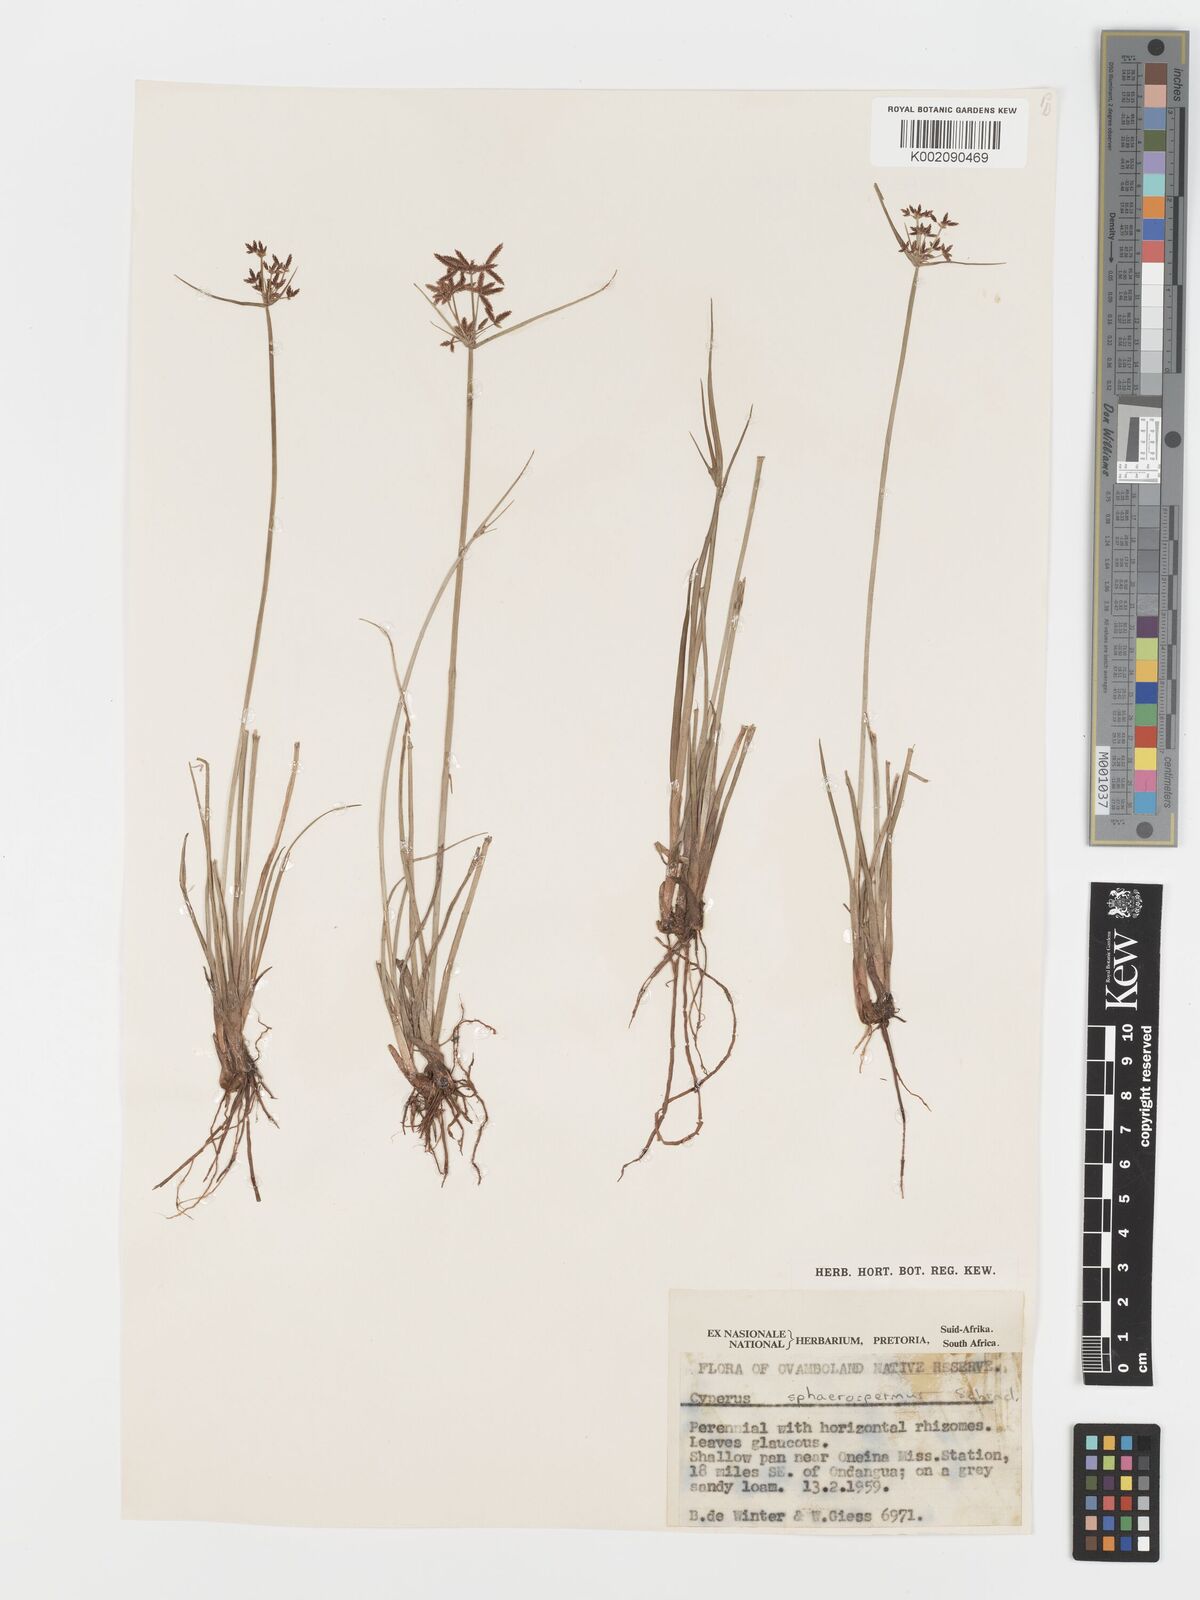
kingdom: Plantae
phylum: Tracheophyta
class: Liliopsida
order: Poales
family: Cyperaceae
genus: Cyperus
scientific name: Cyperus sphaerospermus
